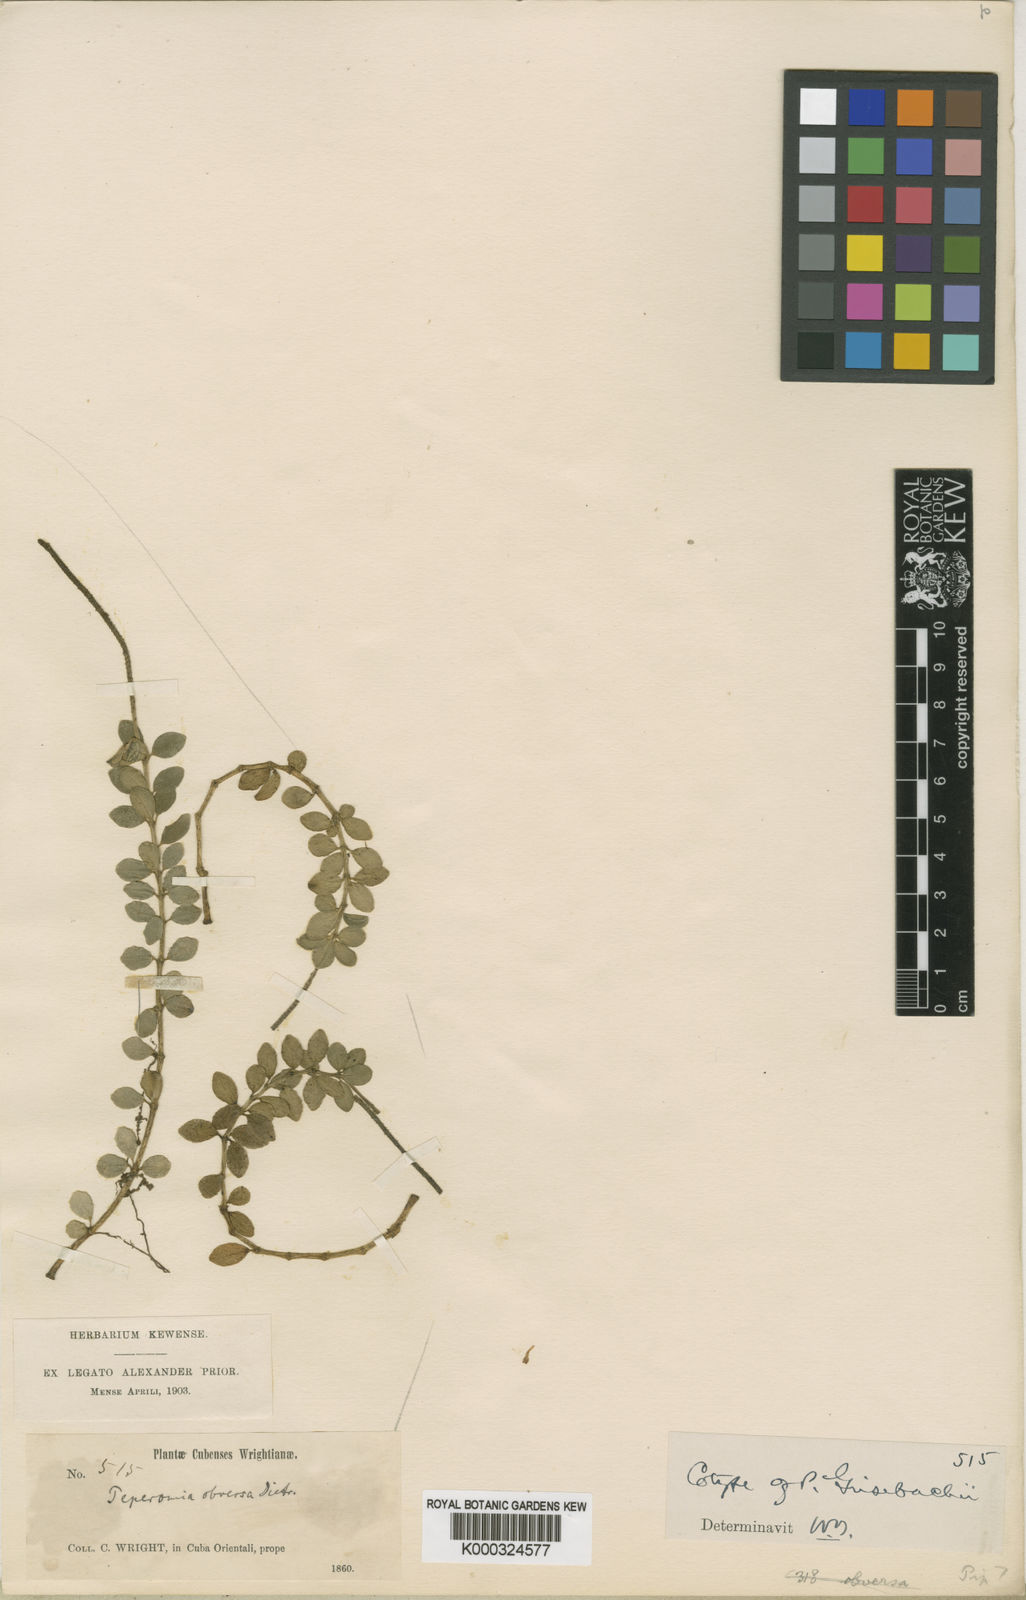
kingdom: Plantae
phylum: Tracheophyta
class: Magnoliopsida
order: Piperales
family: Piperaceae
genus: Peperomia
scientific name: Peperomia grisebachii
